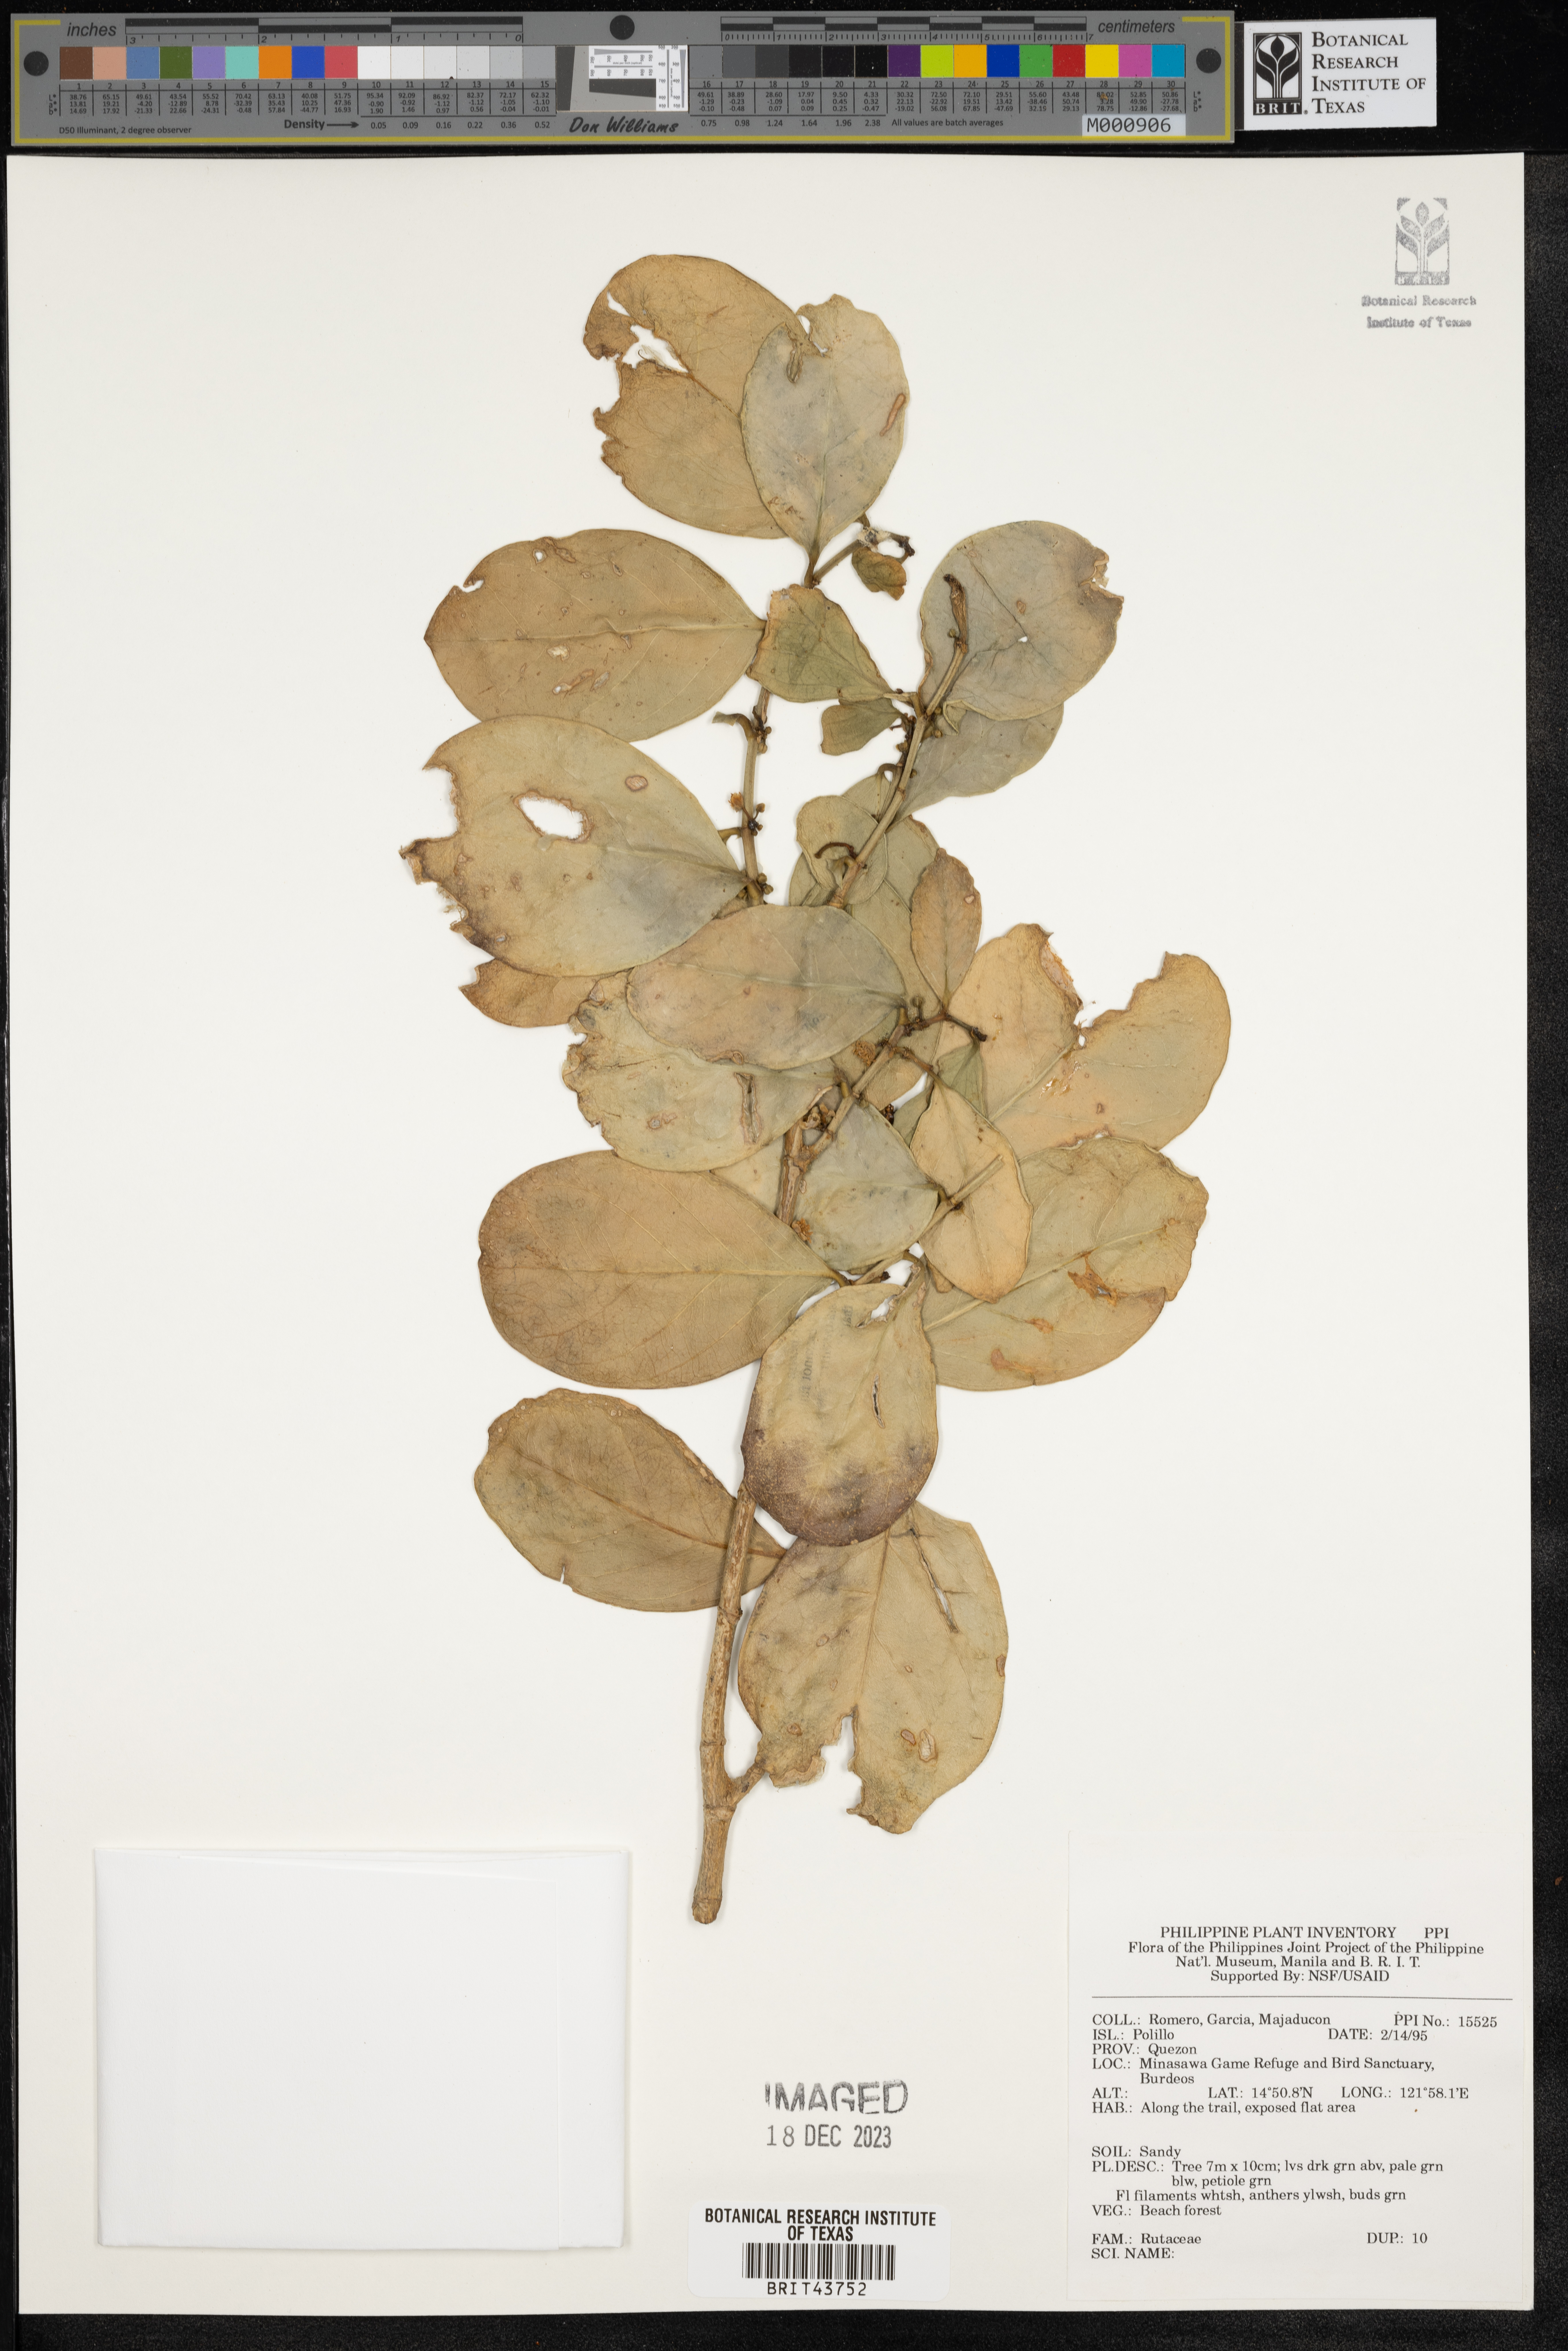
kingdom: Plantae
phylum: Tracheophyta
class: Magnoliopsida
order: Sapindales
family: Rutaceae
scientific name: Rutaceae
